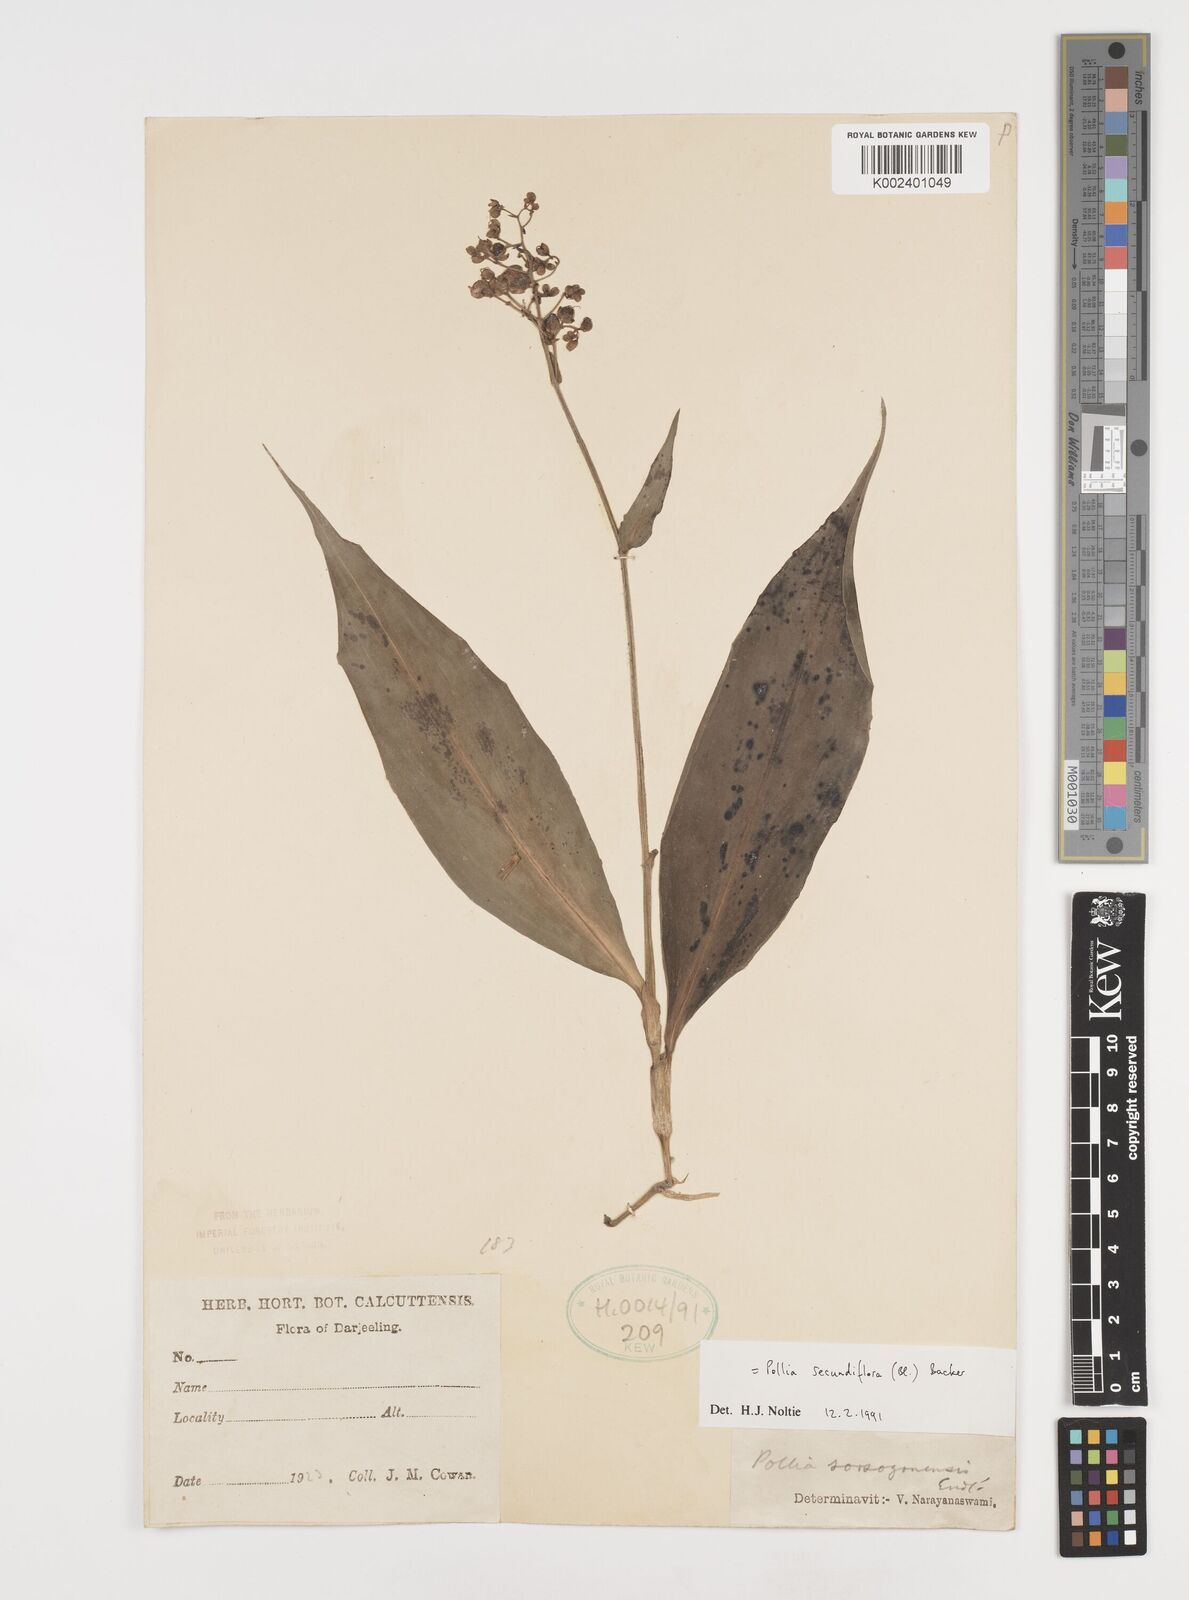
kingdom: Plantae
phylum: Tracheophyta
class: Liliopsida
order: Commelinales
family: Commelinaceae
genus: Pollia
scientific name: Pollia secundiflora
